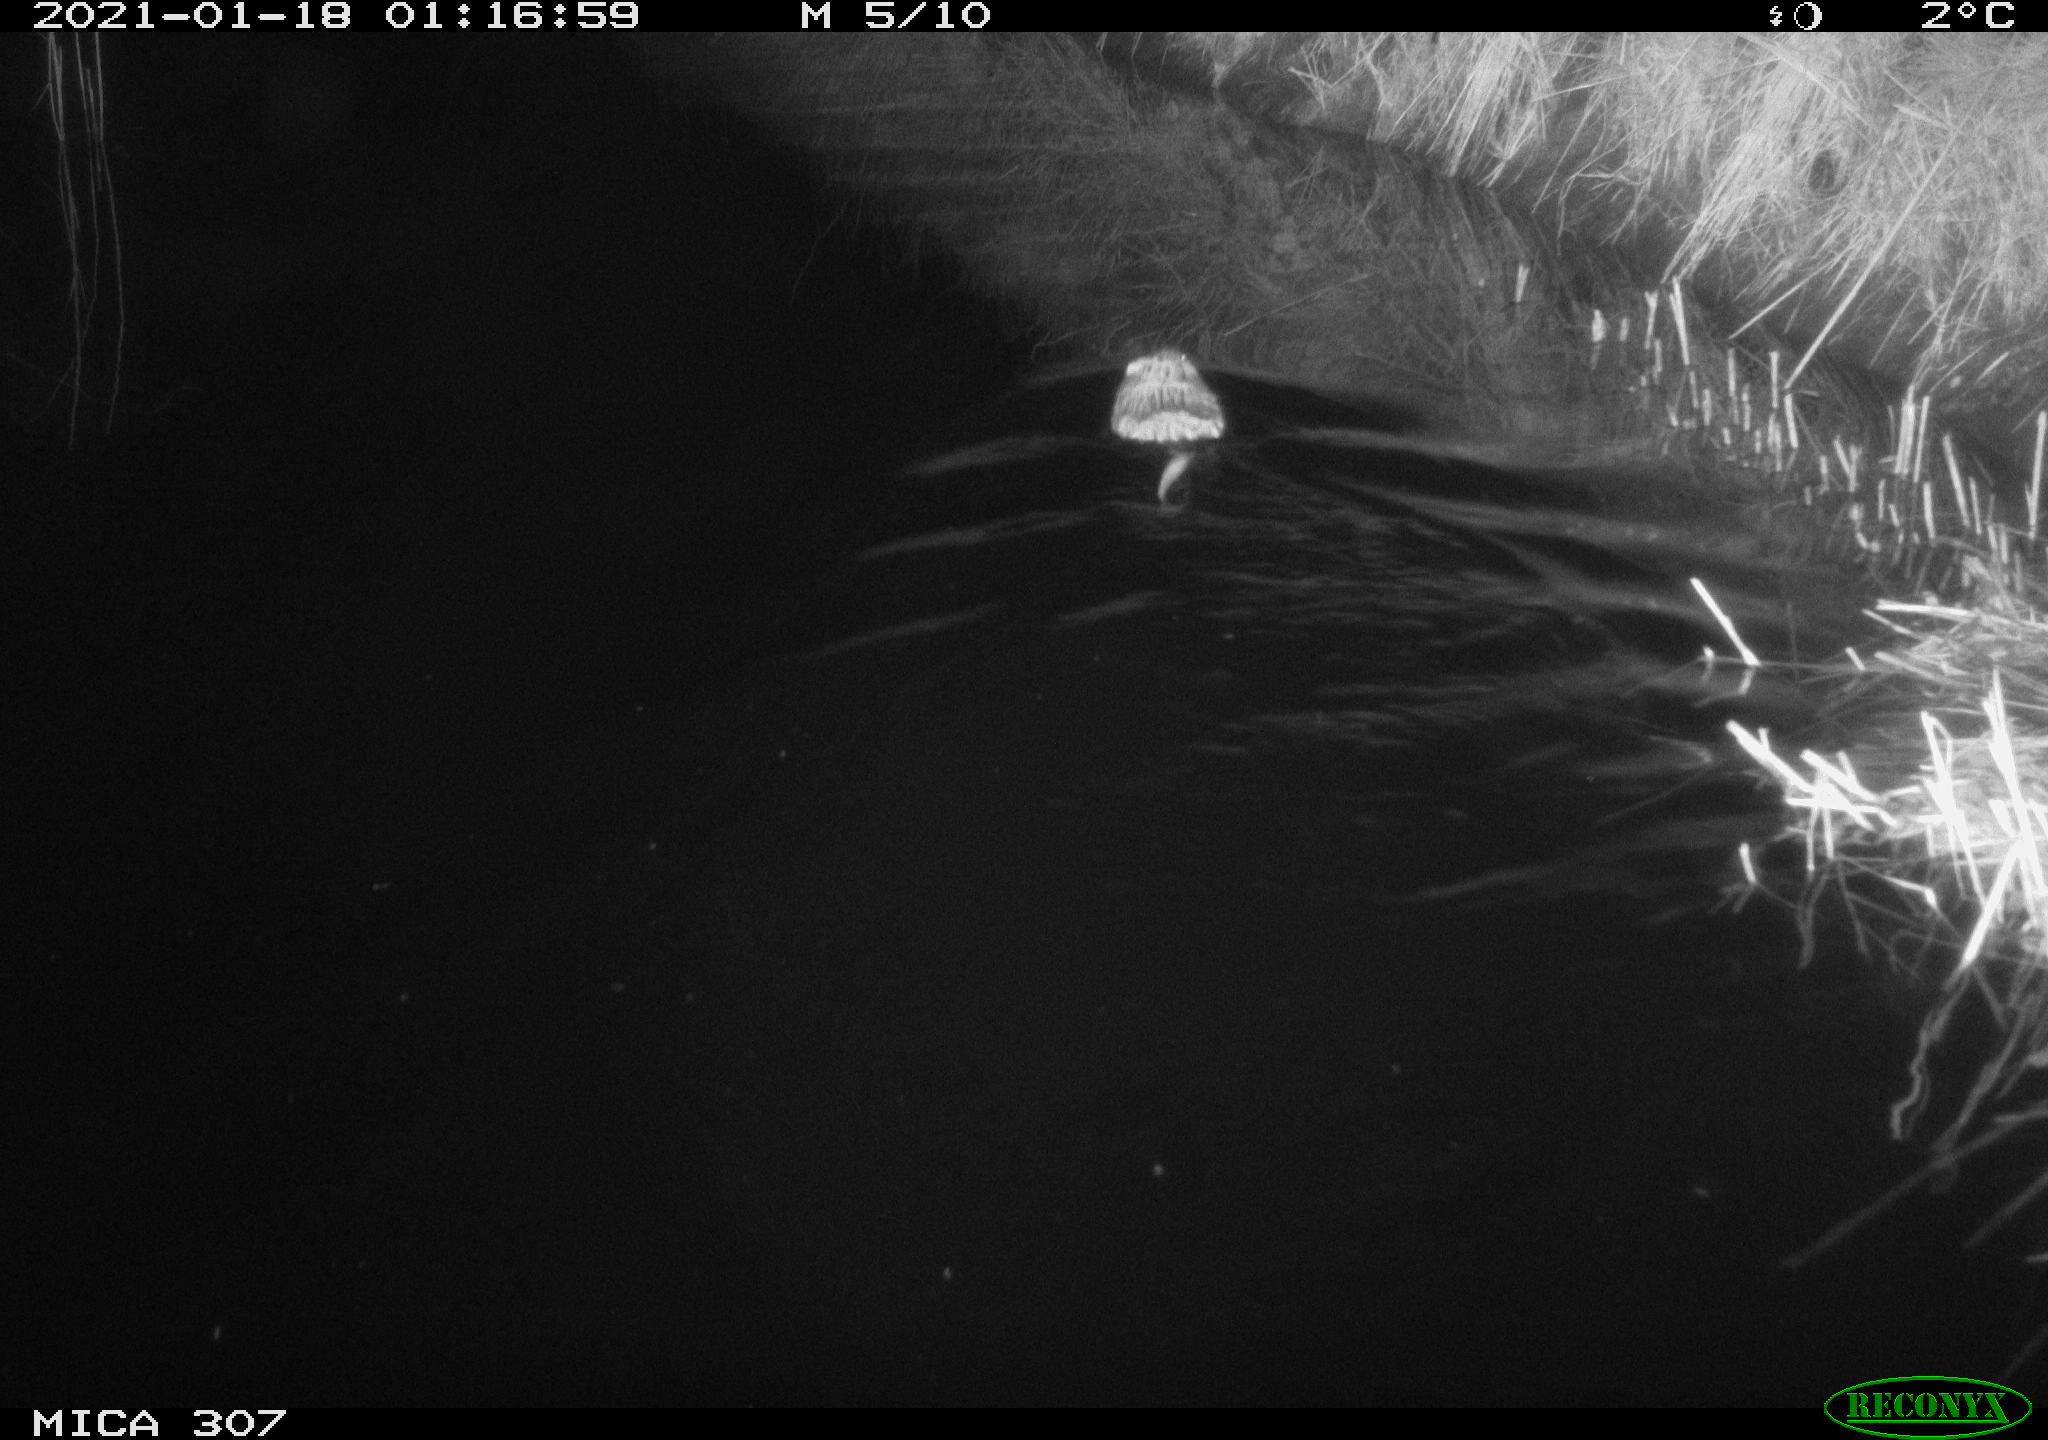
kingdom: Animalia
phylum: Chordata
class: Mammalia
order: Rodentia
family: Cricetidae
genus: Ondatra
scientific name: Ondatra zibethicus
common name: Muskrat
